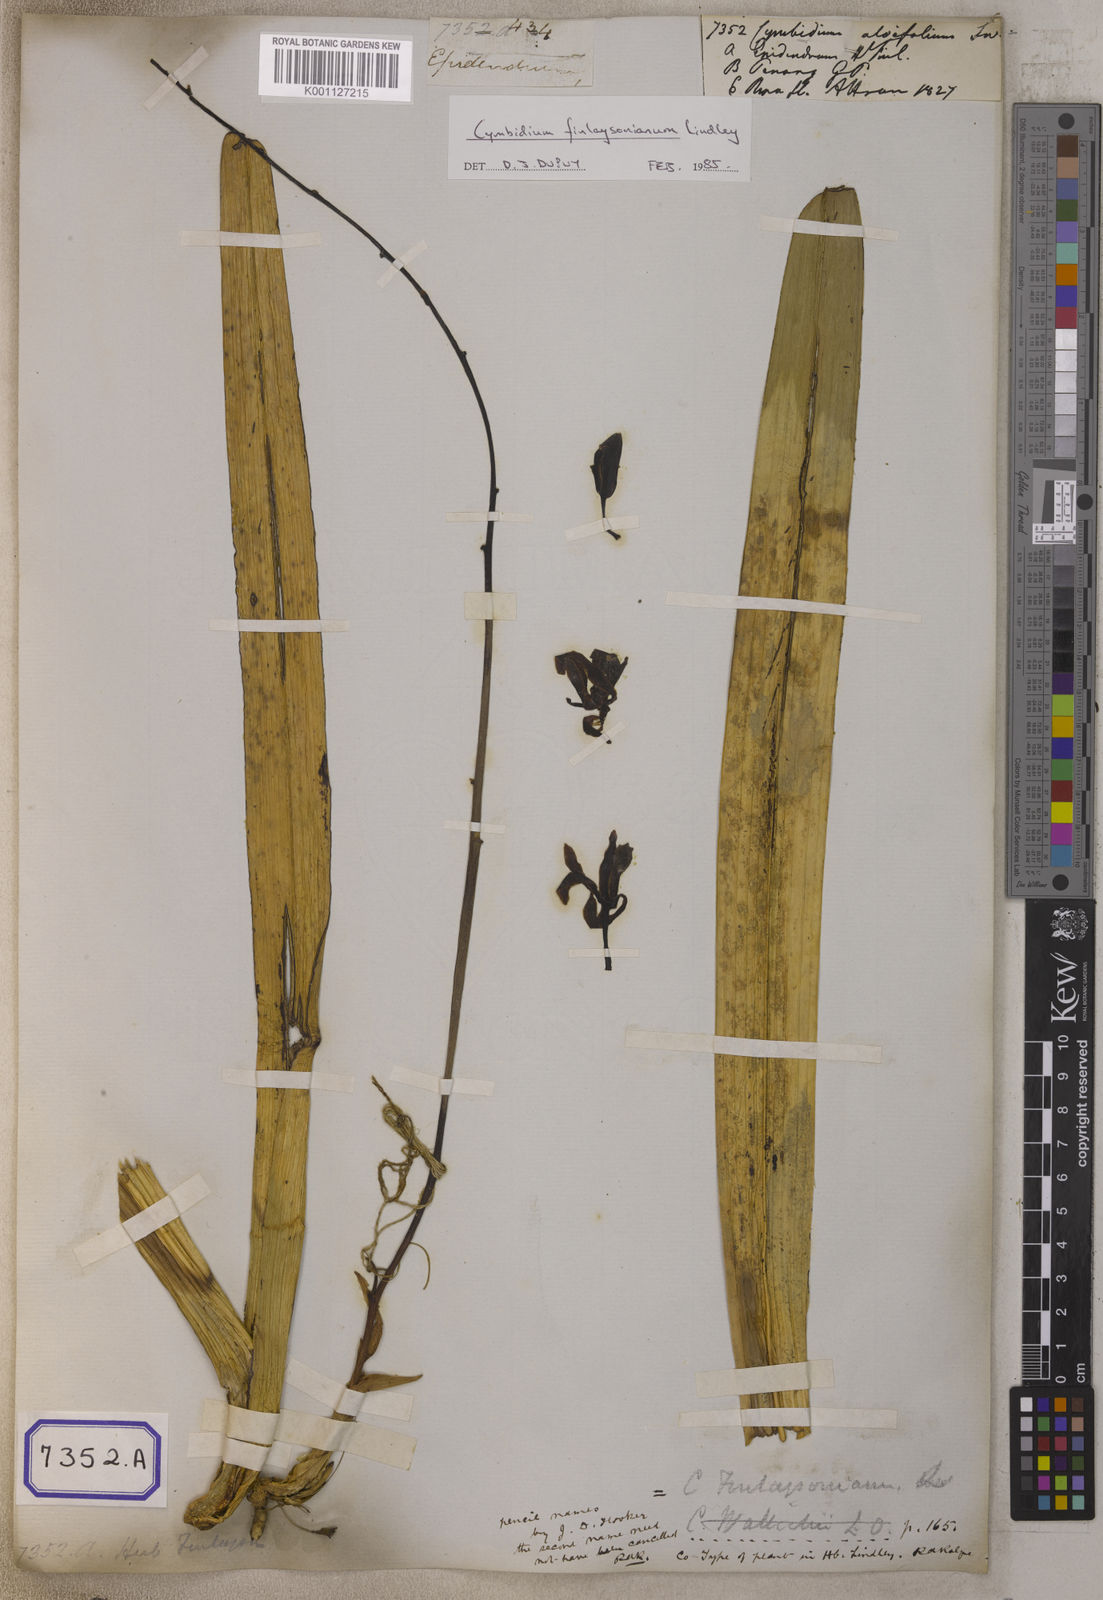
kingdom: Plantae
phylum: Tracheophyta
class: Liliopsida
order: Asparagales
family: Orchidaceae
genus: Cymbidium
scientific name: Cymbidium
